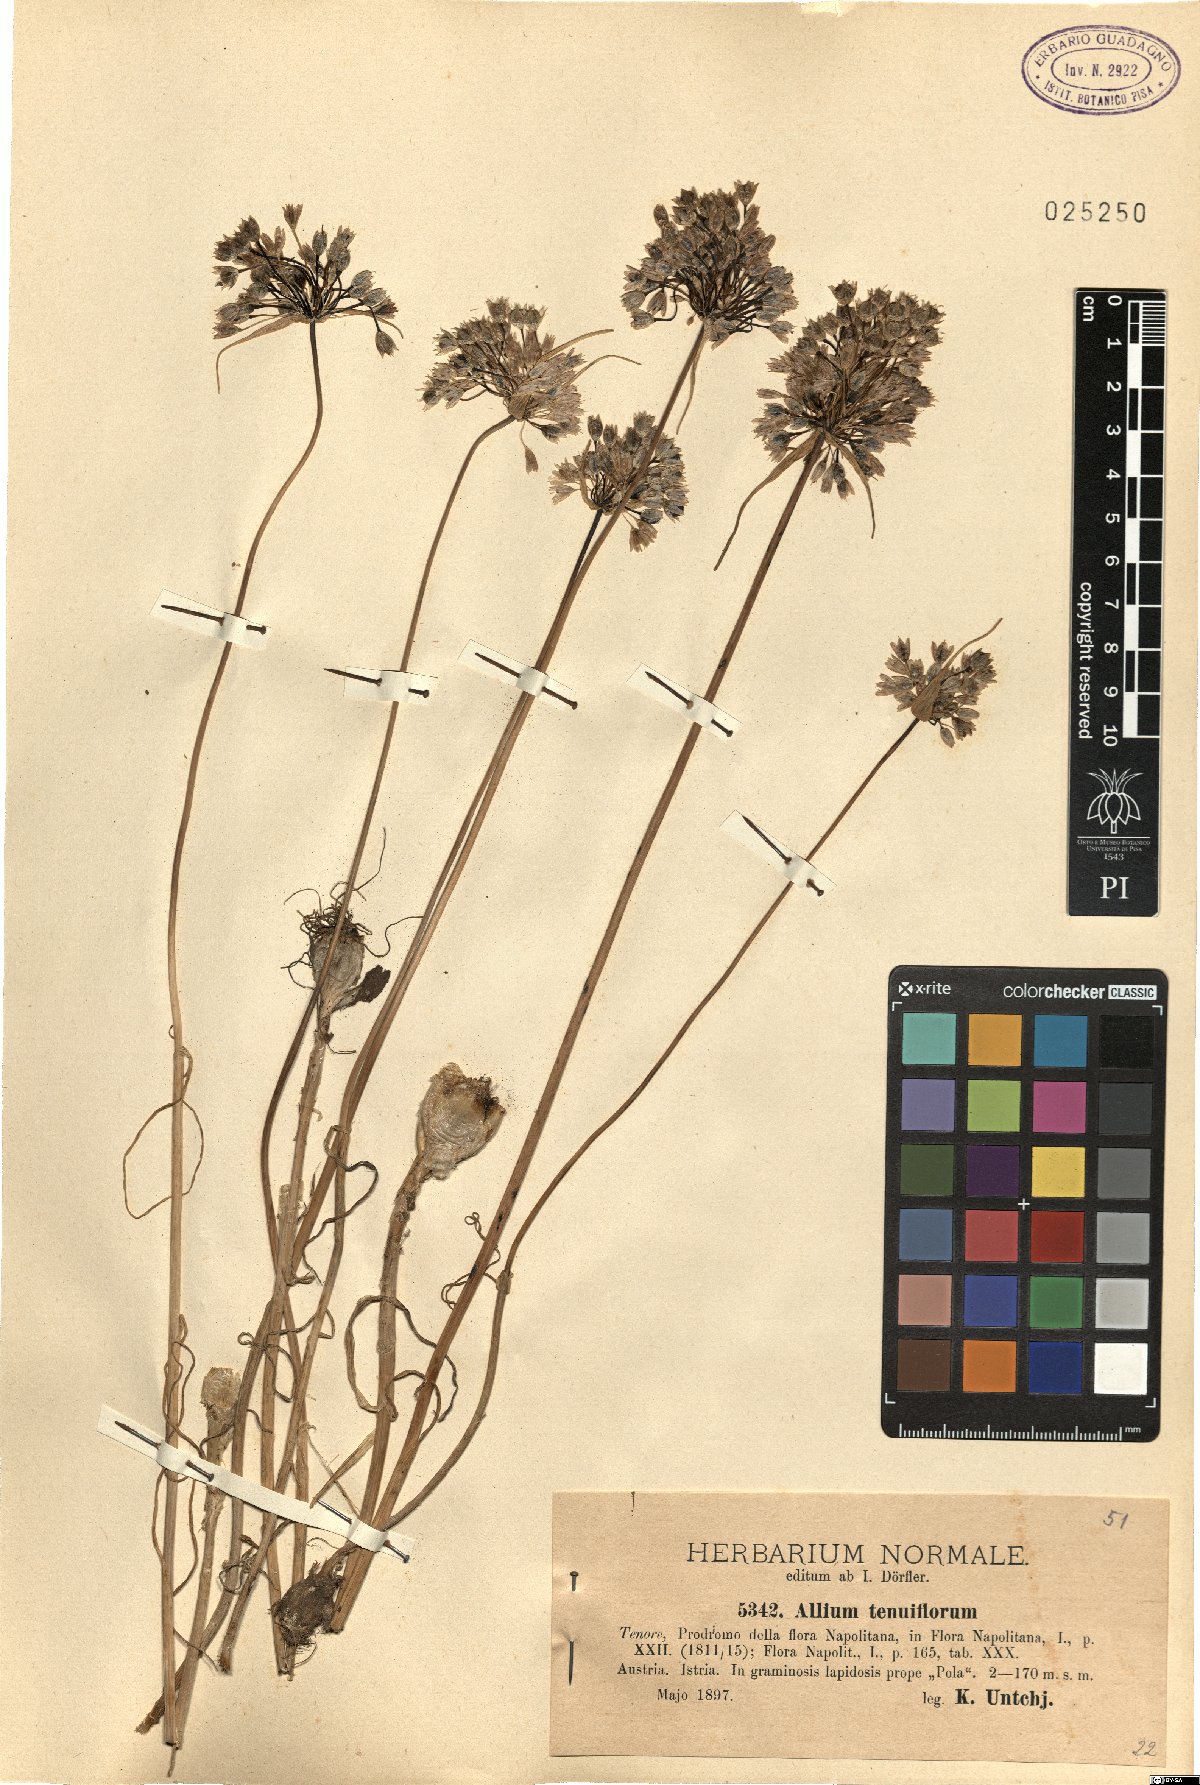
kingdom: Plantae
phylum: Tracheophyta
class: Liliopsida
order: Asparagales
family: Amaryllidaceae
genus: Allium
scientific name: Allium tenuiflorum
